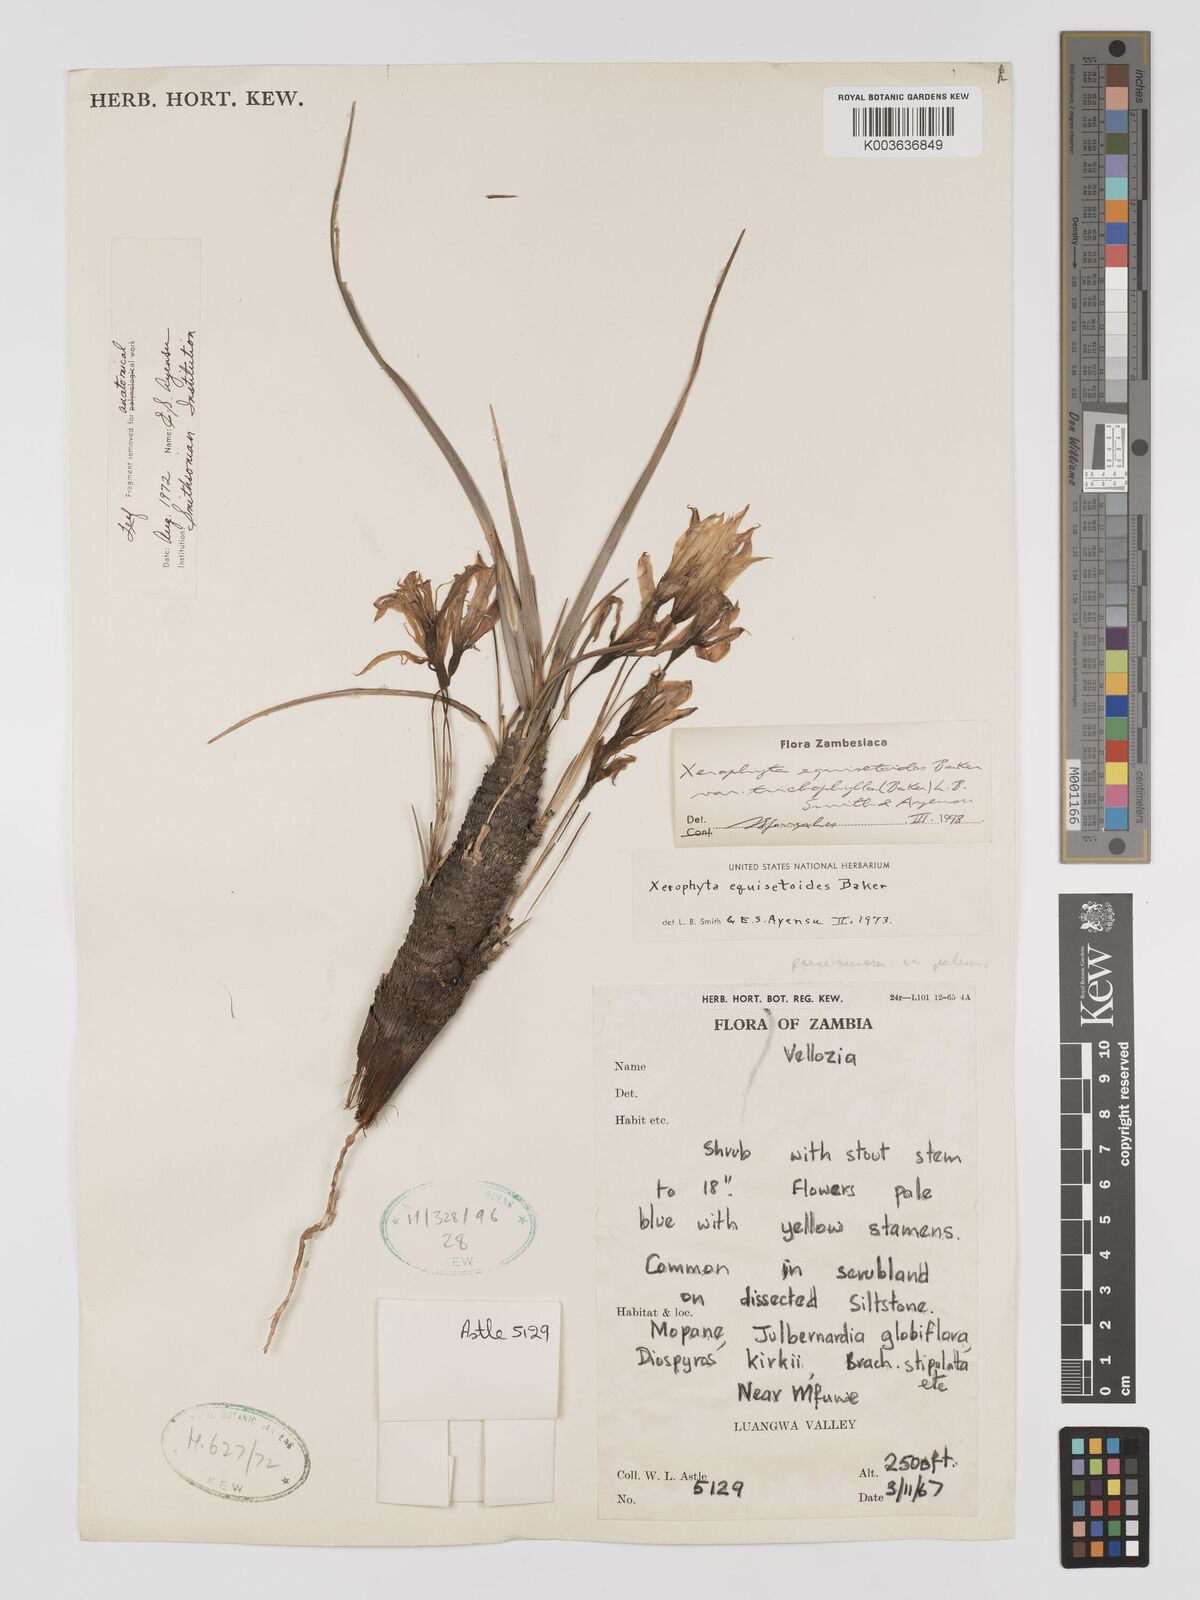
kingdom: Plantae
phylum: Tracheophyta
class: Liliopsida
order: Pandanales
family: Velloziaceae
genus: Xerophyta
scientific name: Xerophyta trichophylla
